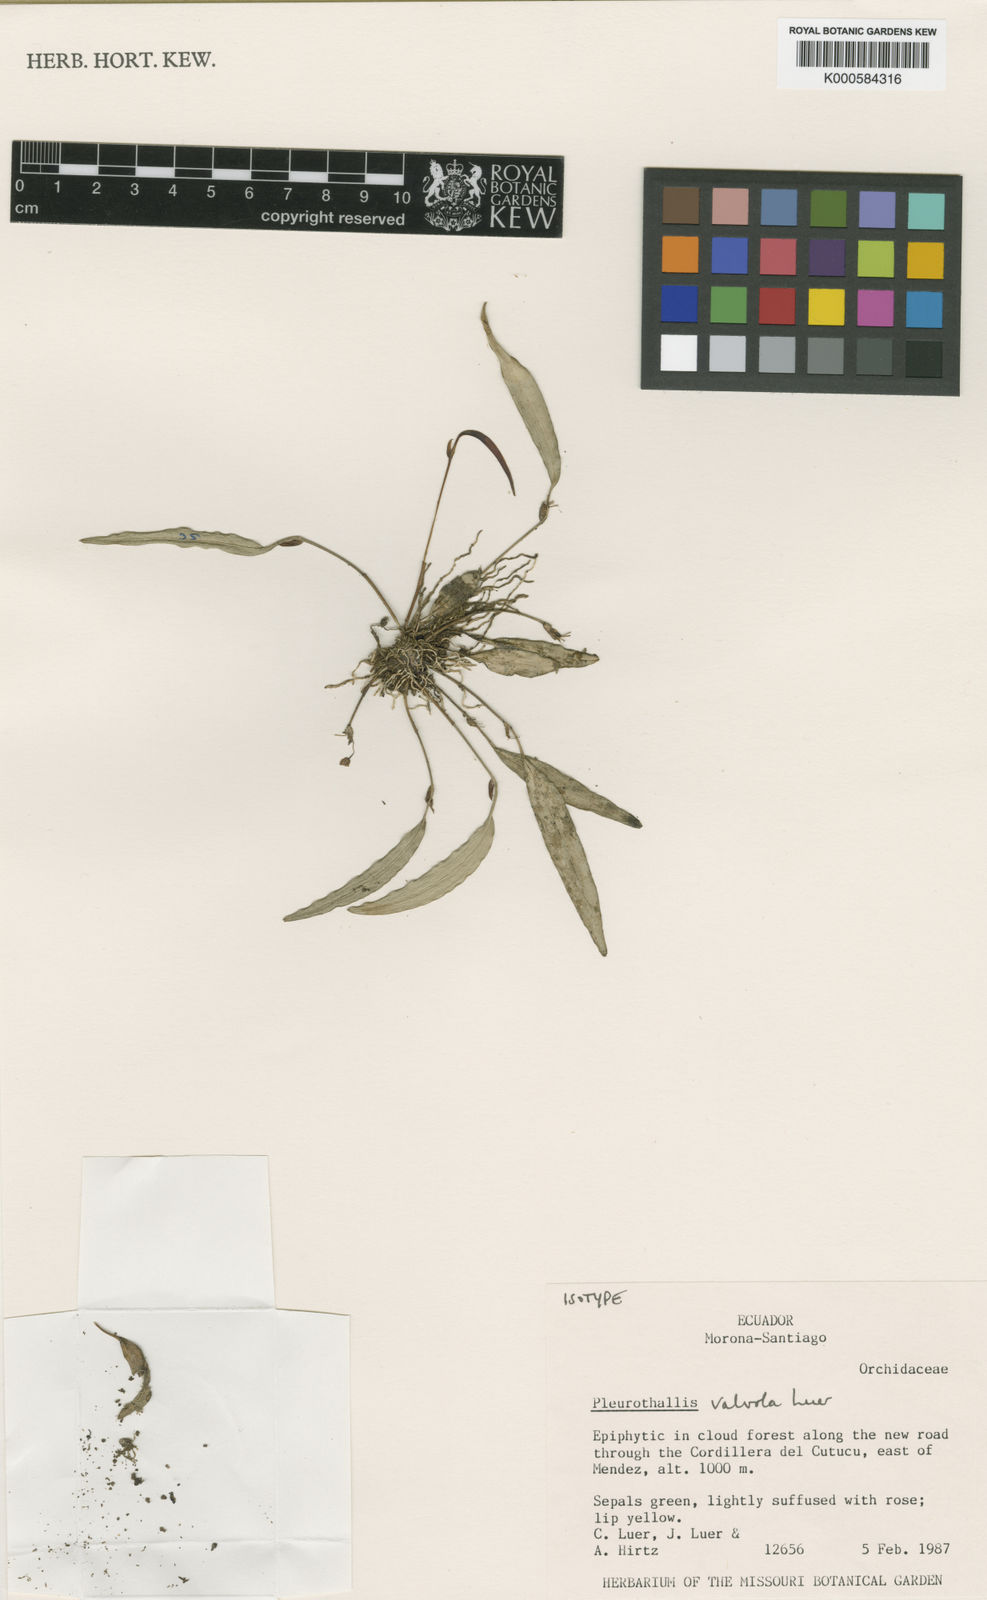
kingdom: Plantae
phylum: Tracheophyta
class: Liliopsida
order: Asparagales
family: Orchidaceae
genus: Lepanthes
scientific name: Lepanthes
